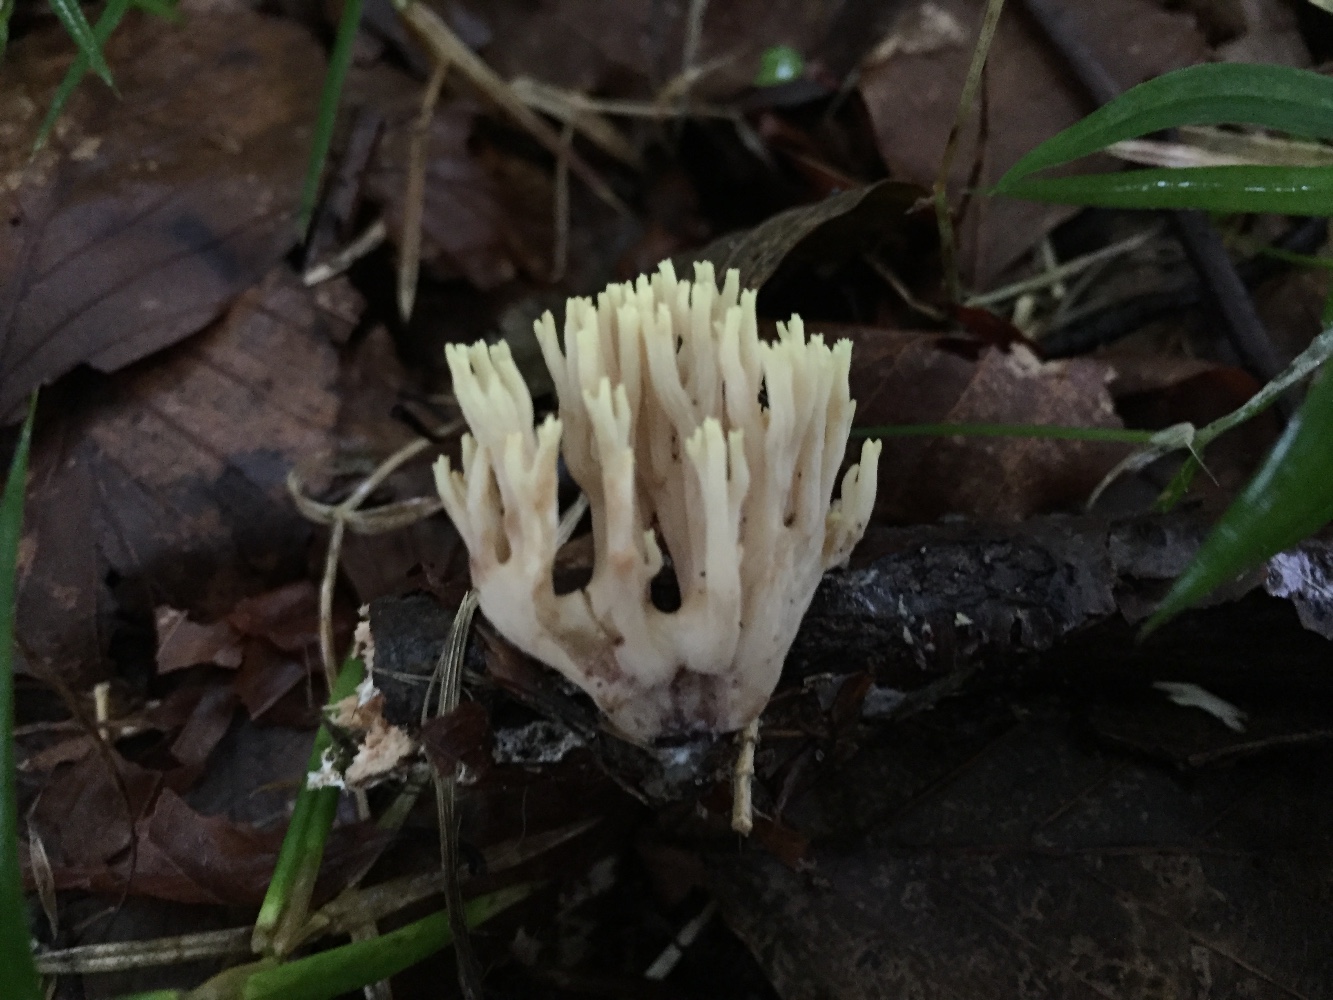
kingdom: Fungi
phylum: Basidiomycota
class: Agaricomycetes
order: Gomphales
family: Gomphaceae
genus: Ramaria
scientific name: Ramaria stricta
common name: rank koralsvamp
